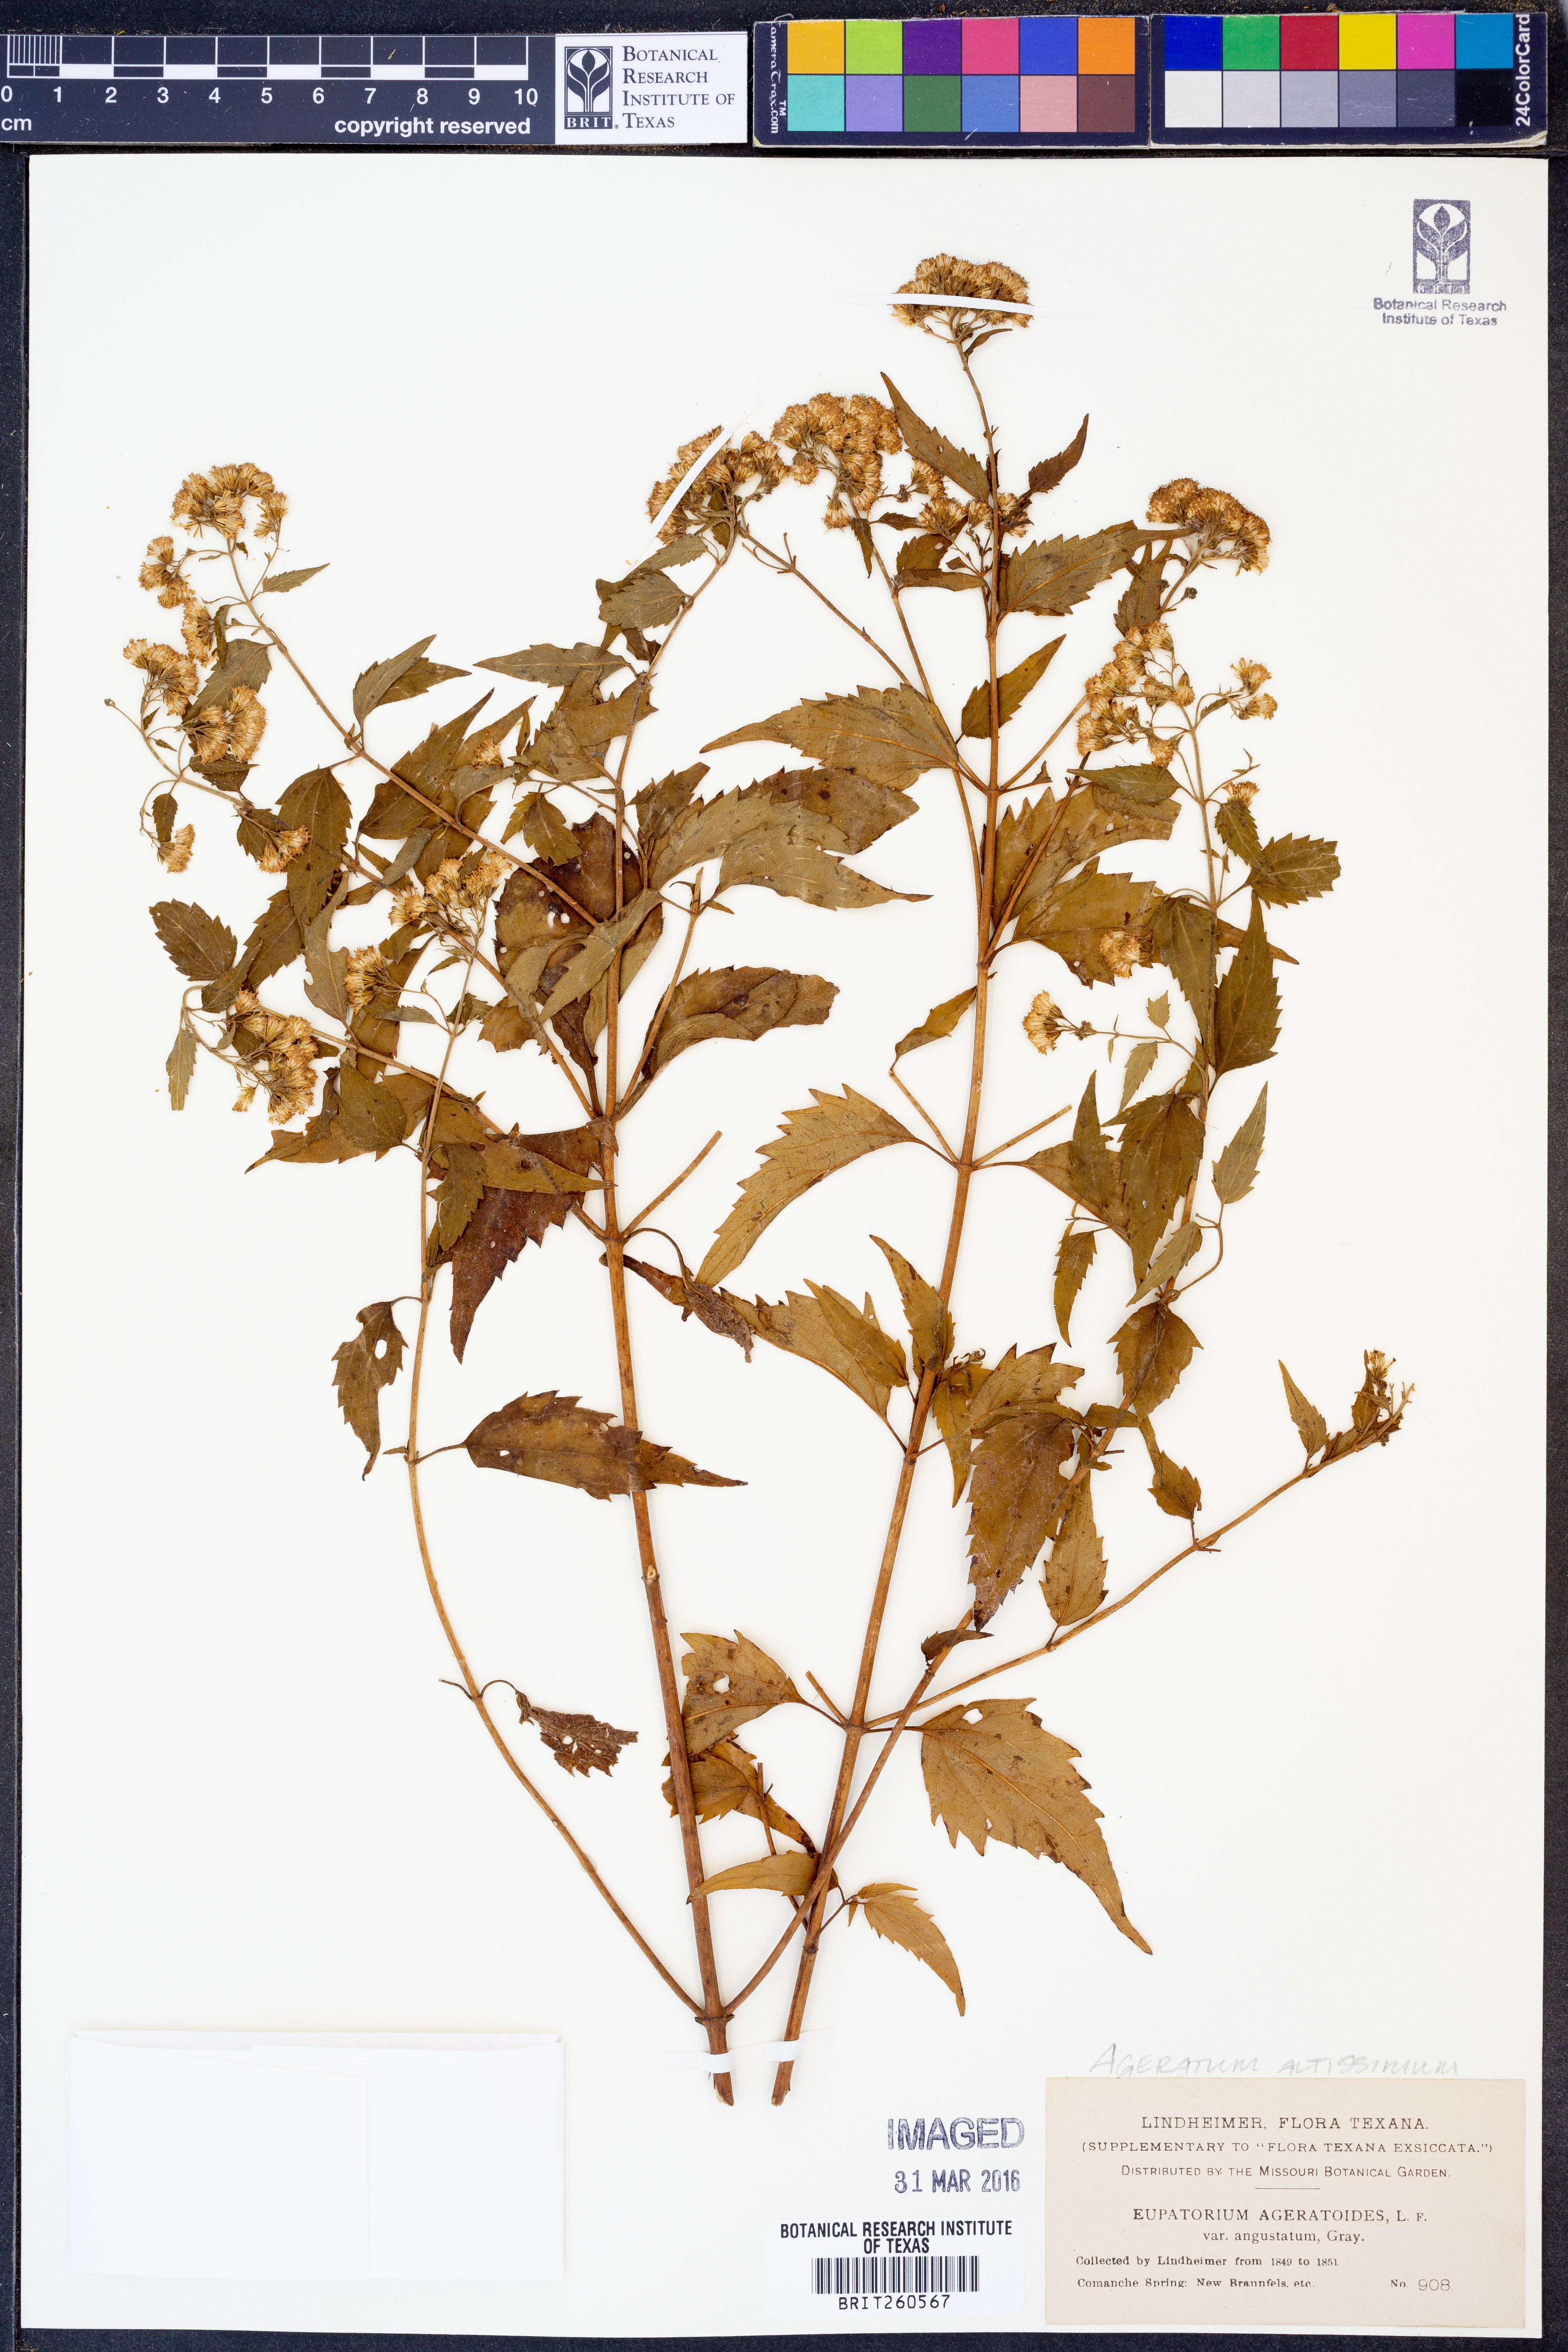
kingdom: Plantae
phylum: Tracheophyta
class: Magnoliopsida
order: Asterales
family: Asteraceae
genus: Ageratina
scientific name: Ageratina altissima
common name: White snakeroot
